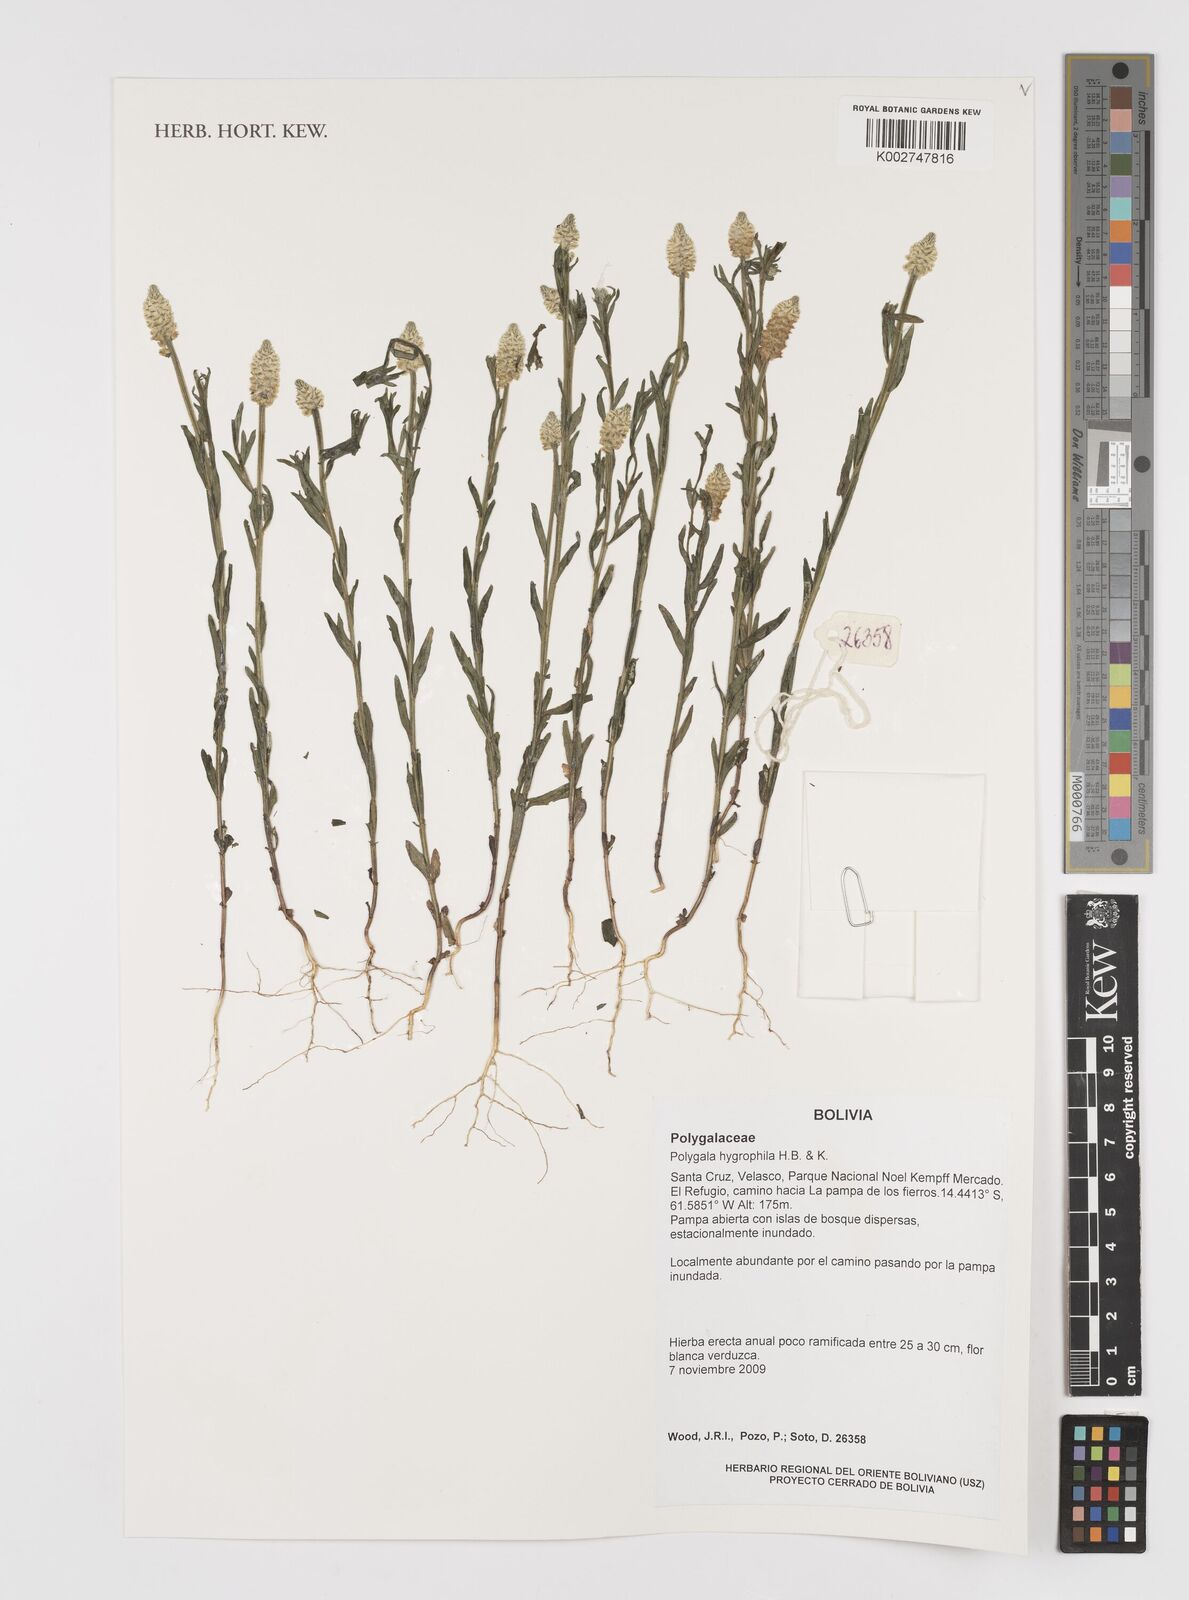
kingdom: Plantae
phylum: Tracheophyta
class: Magnoliopsida
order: Fabales
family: Polygalaceae
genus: Polygala
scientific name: Polygala hygrophila
